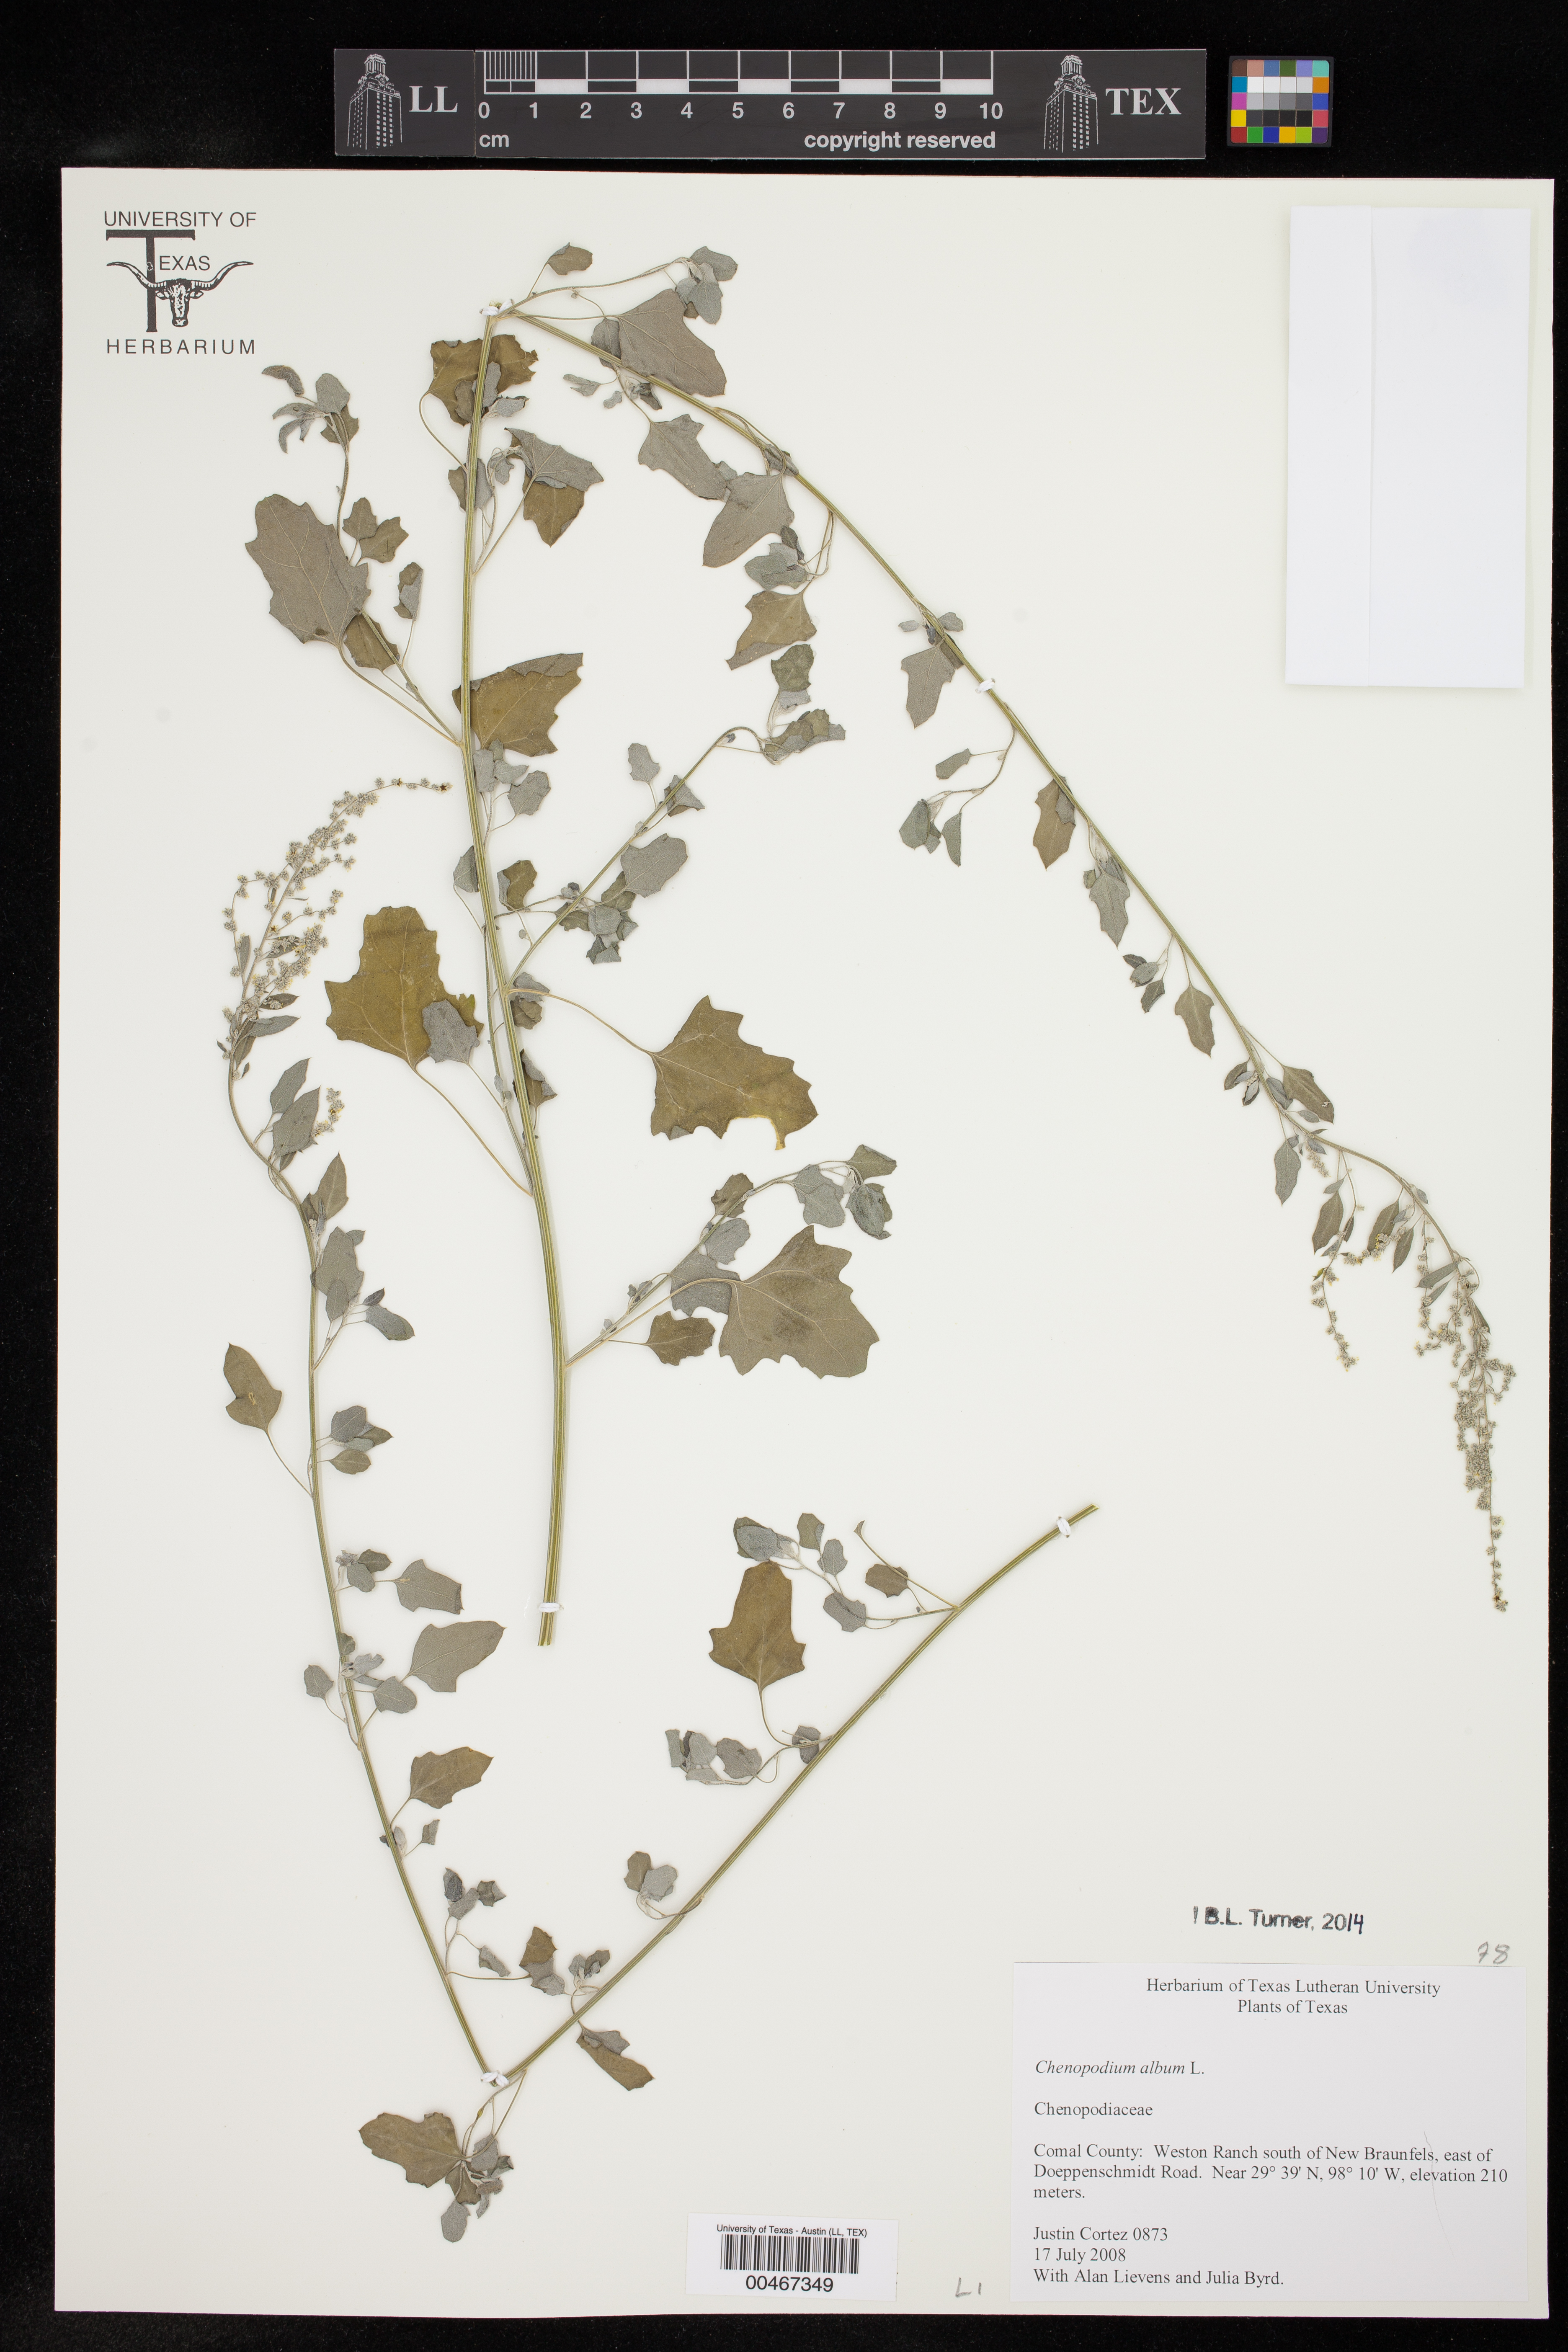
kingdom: Plantae
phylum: Tracheophyta
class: Magnoliopsida
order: Caryophyllales
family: Amaranthaceae
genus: Chenopodium
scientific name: Chenopodium album
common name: Fat-hen
